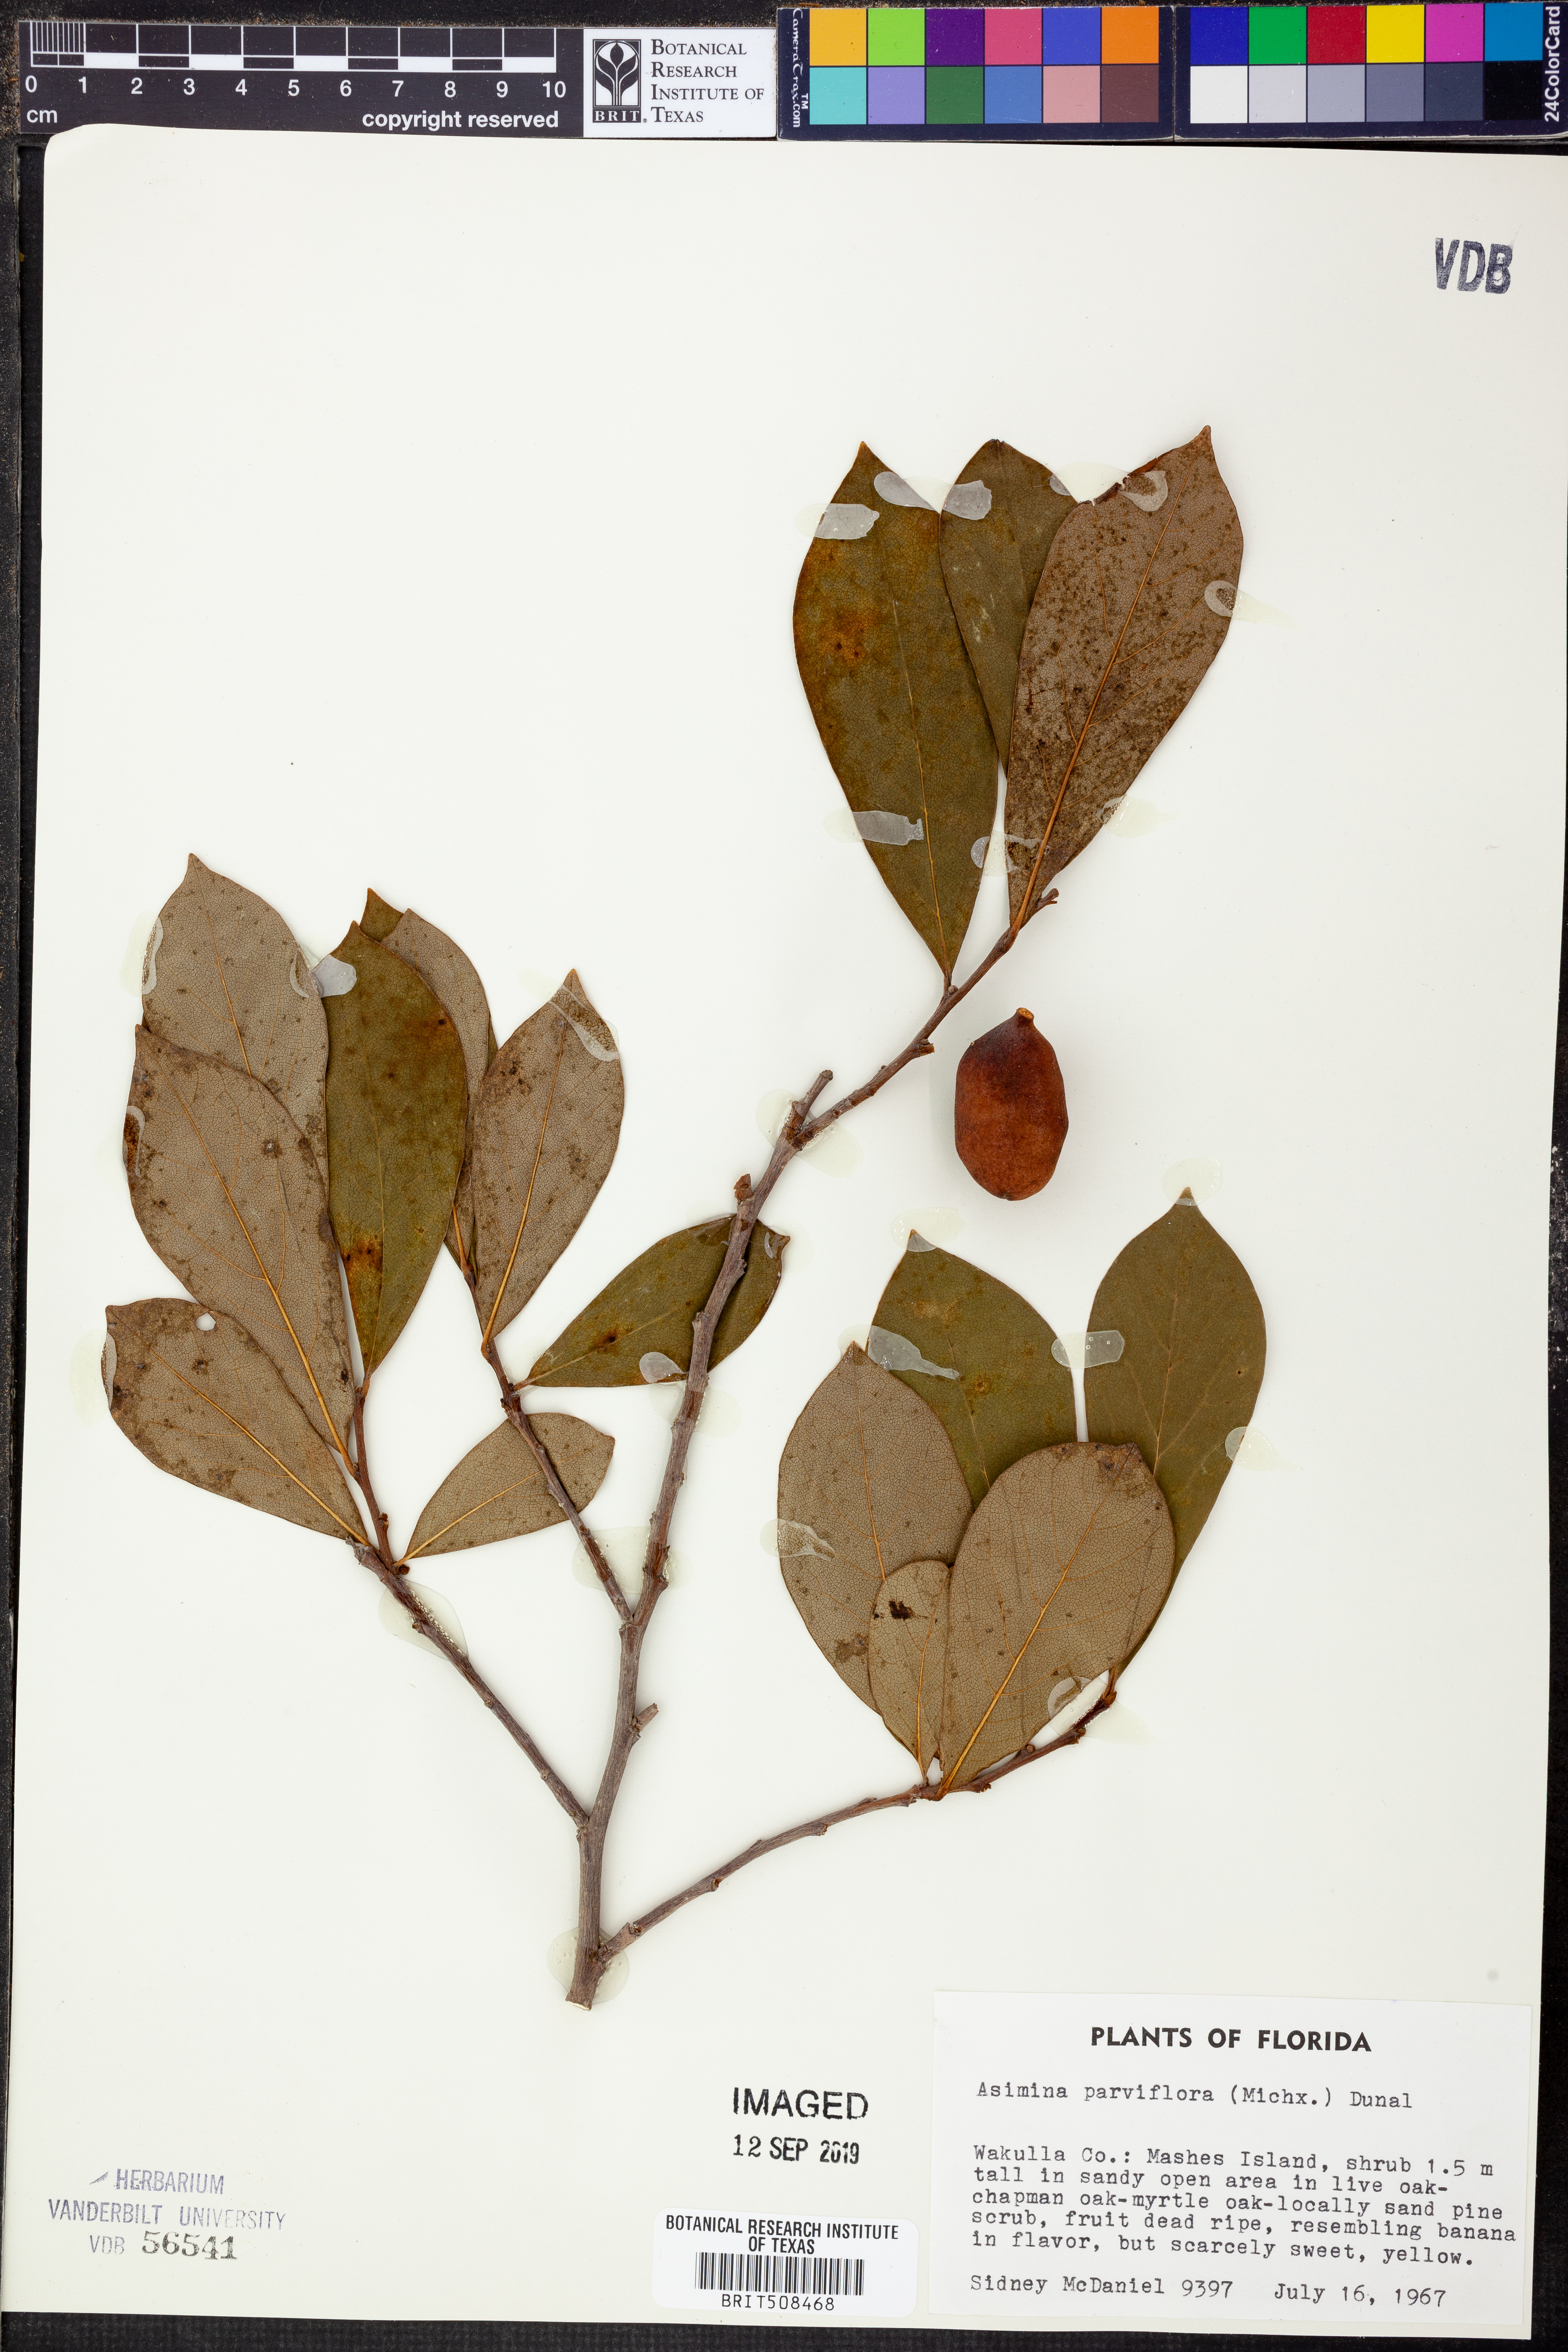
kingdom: Plantae
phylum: Tracheophyta
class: Magnoliopsida
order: Magnoliales
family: Annonaceae
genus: Asimina
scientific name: Asimina parviflora
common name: Dwarf pawpaw
